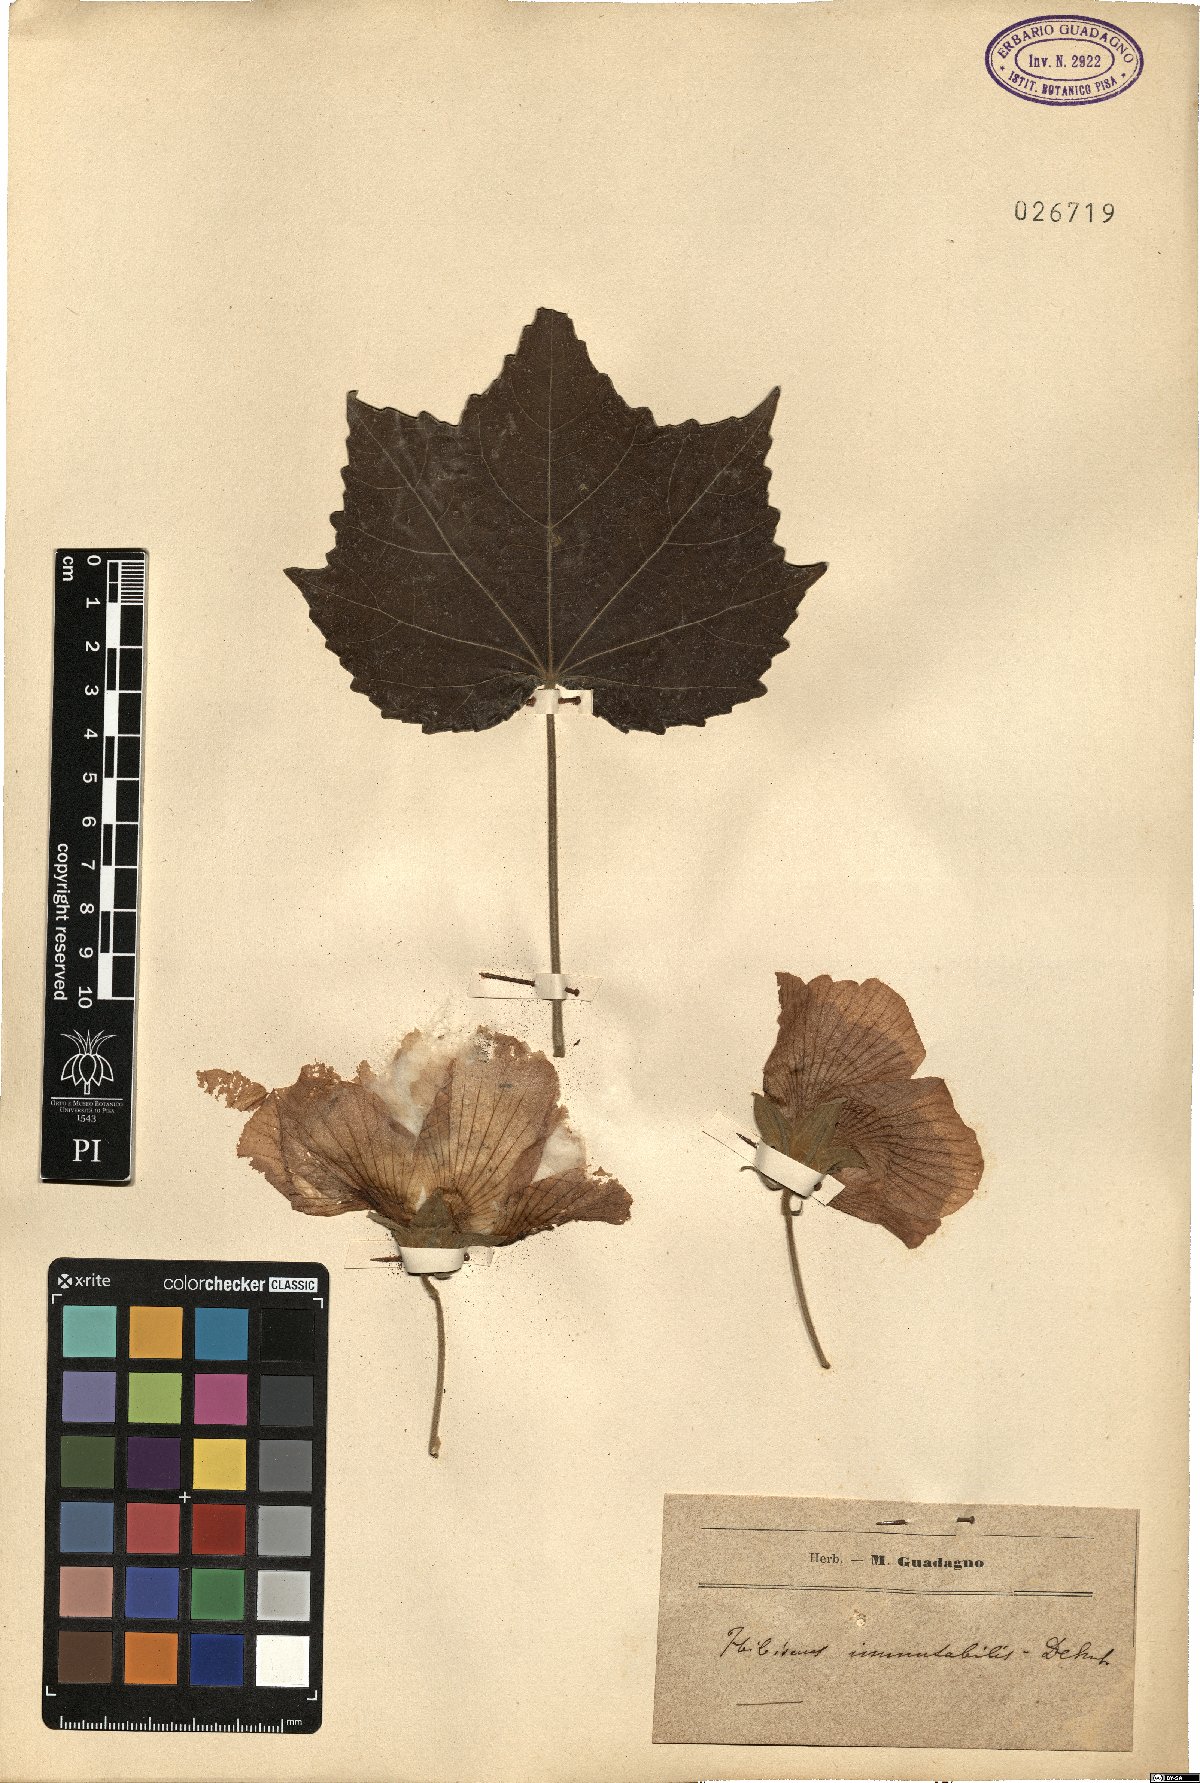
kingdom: Plantae
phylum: Tracheophyta
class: Magnoliopsida
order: Malvales
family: Malvaceae
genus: Hibiscus
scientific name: Hibiscus mutabilis
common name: Dixie rosemallow
